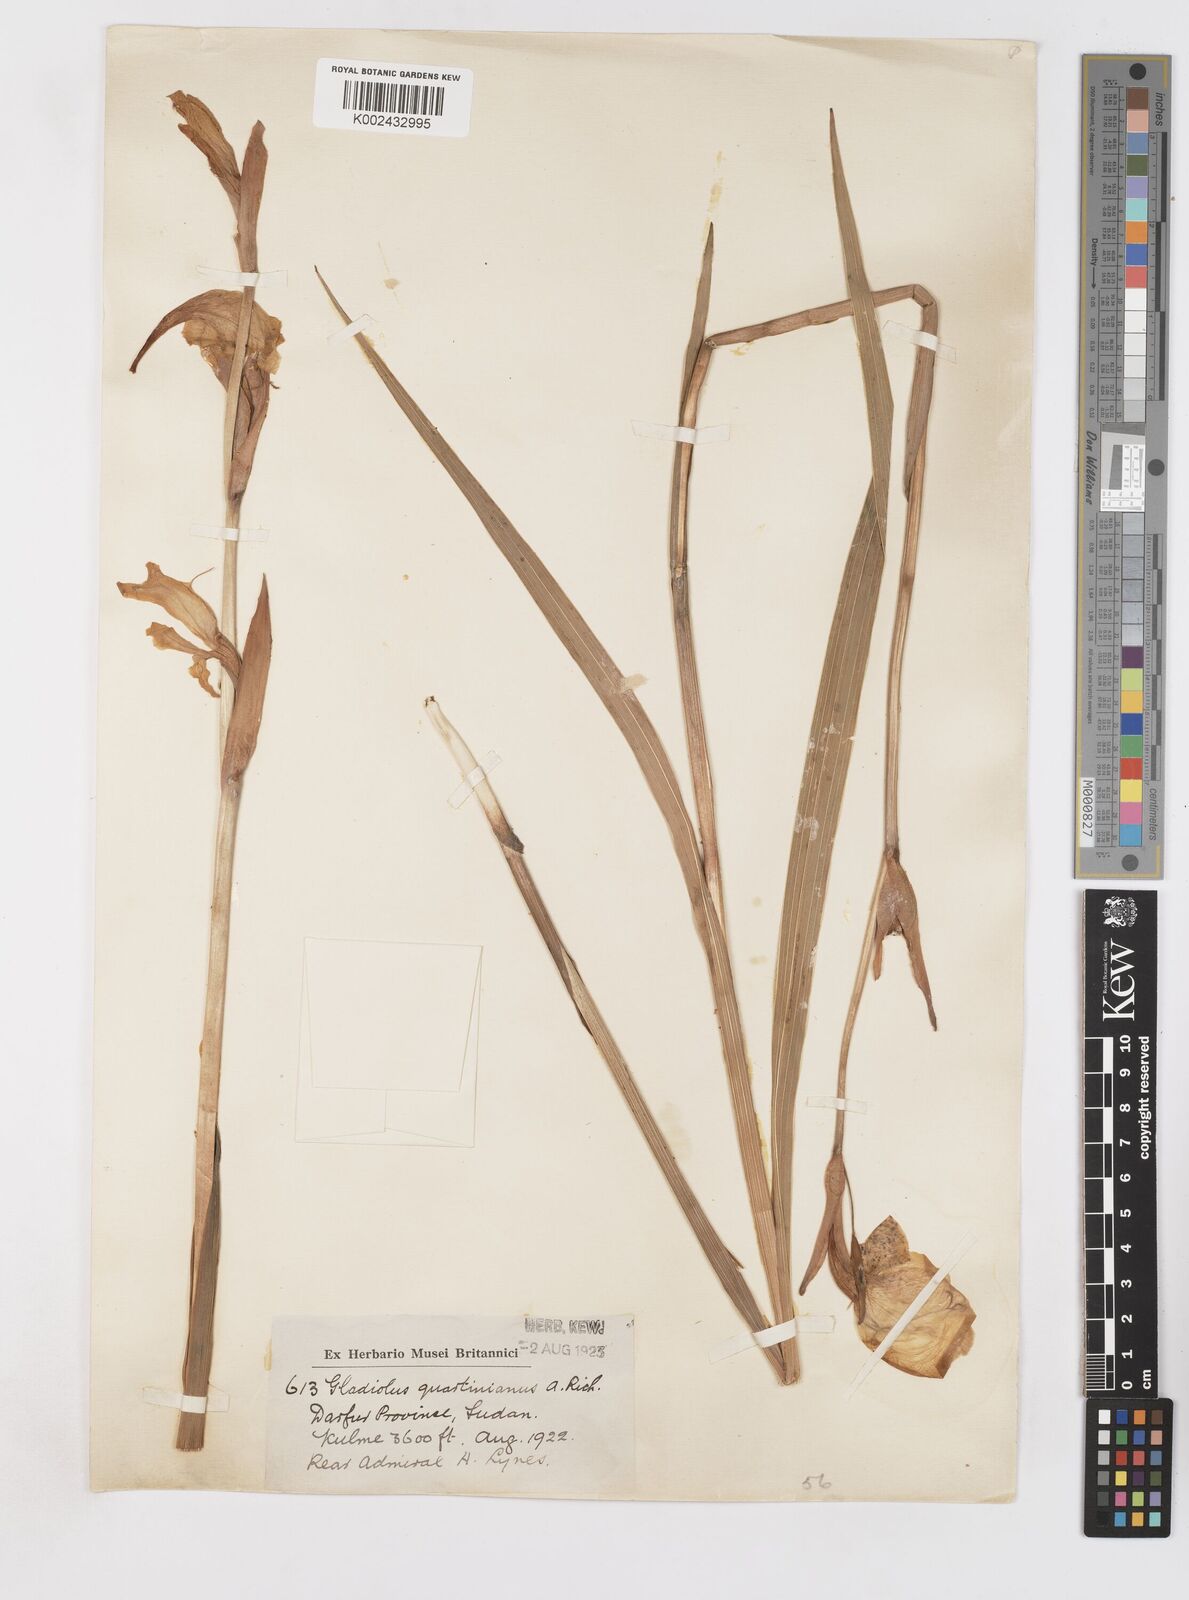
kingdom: Plantae
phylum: Tracheophyta
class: Liliopsida
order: Asparagales
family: Iridaceae
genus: Gladiolus
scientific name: Gladiolus dalenii
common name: Cornflag
